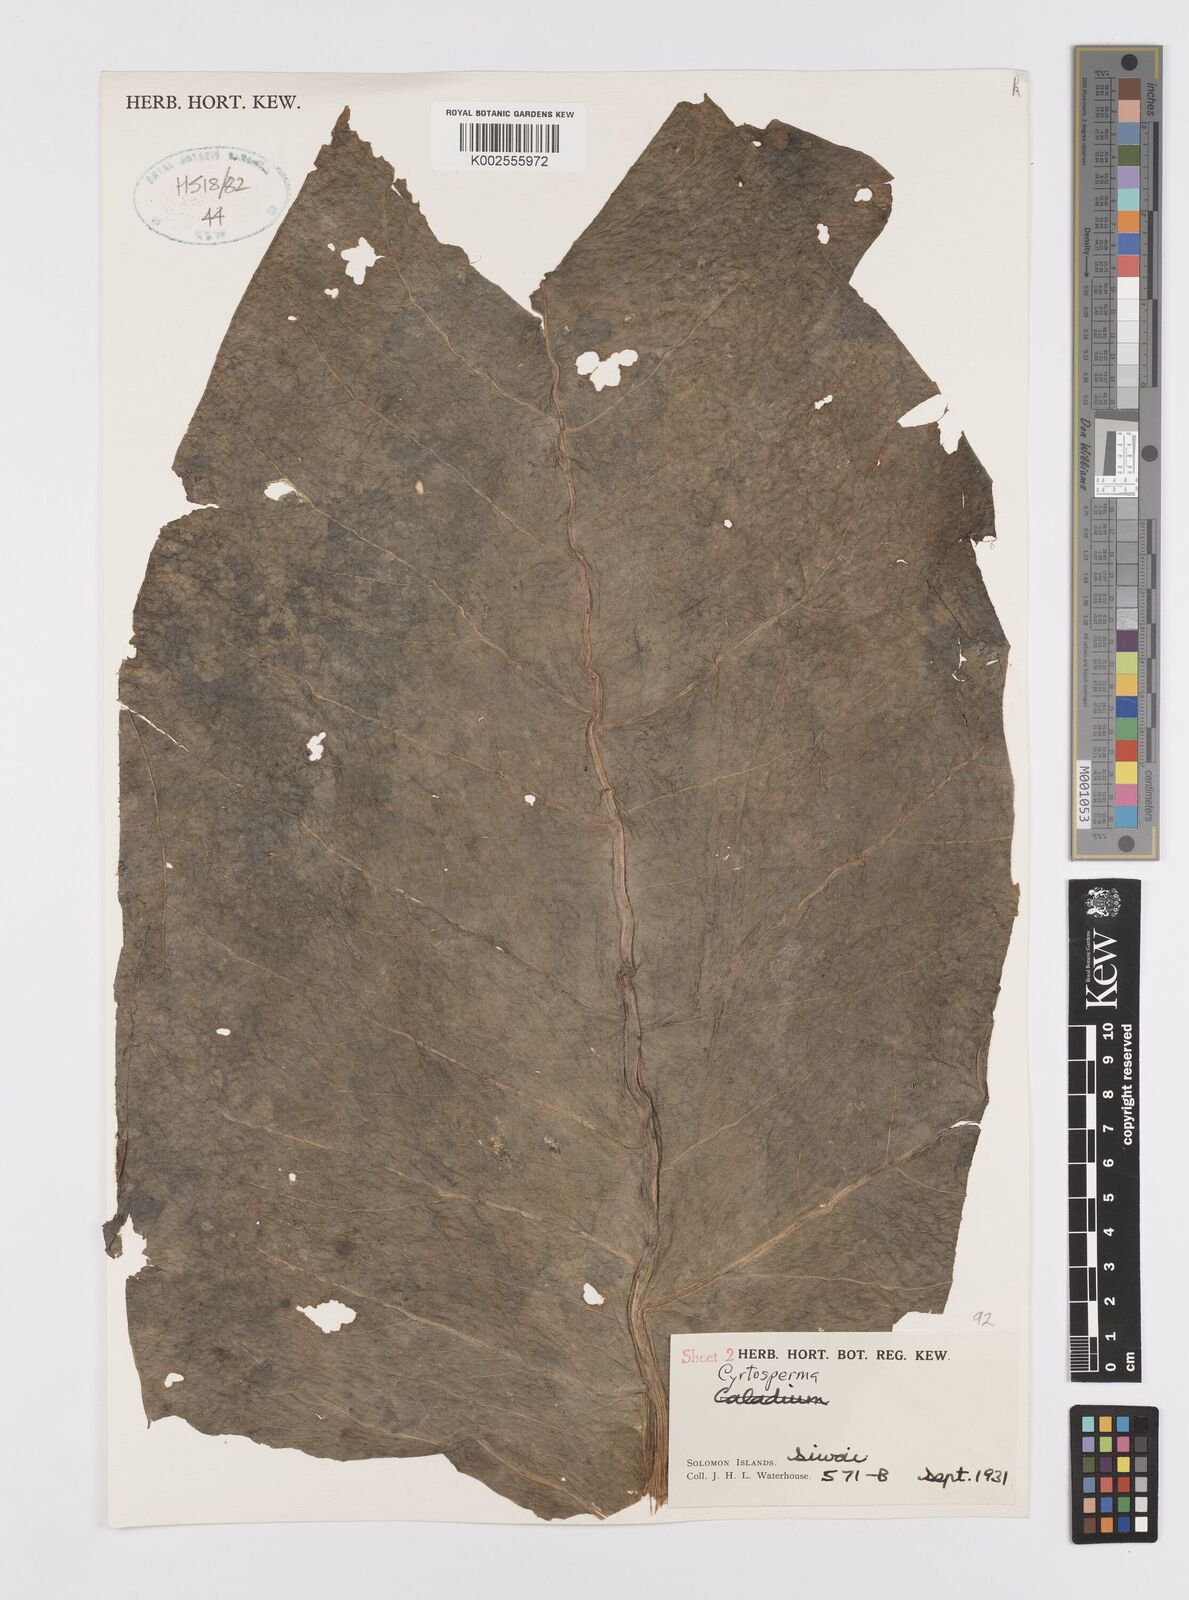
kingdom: Plantae
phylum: Tracheophyta
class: Liliopsida
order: Alismatales
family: Araceae
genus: Cyrtosperma
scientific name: Cyrtosperma bougainvillense
